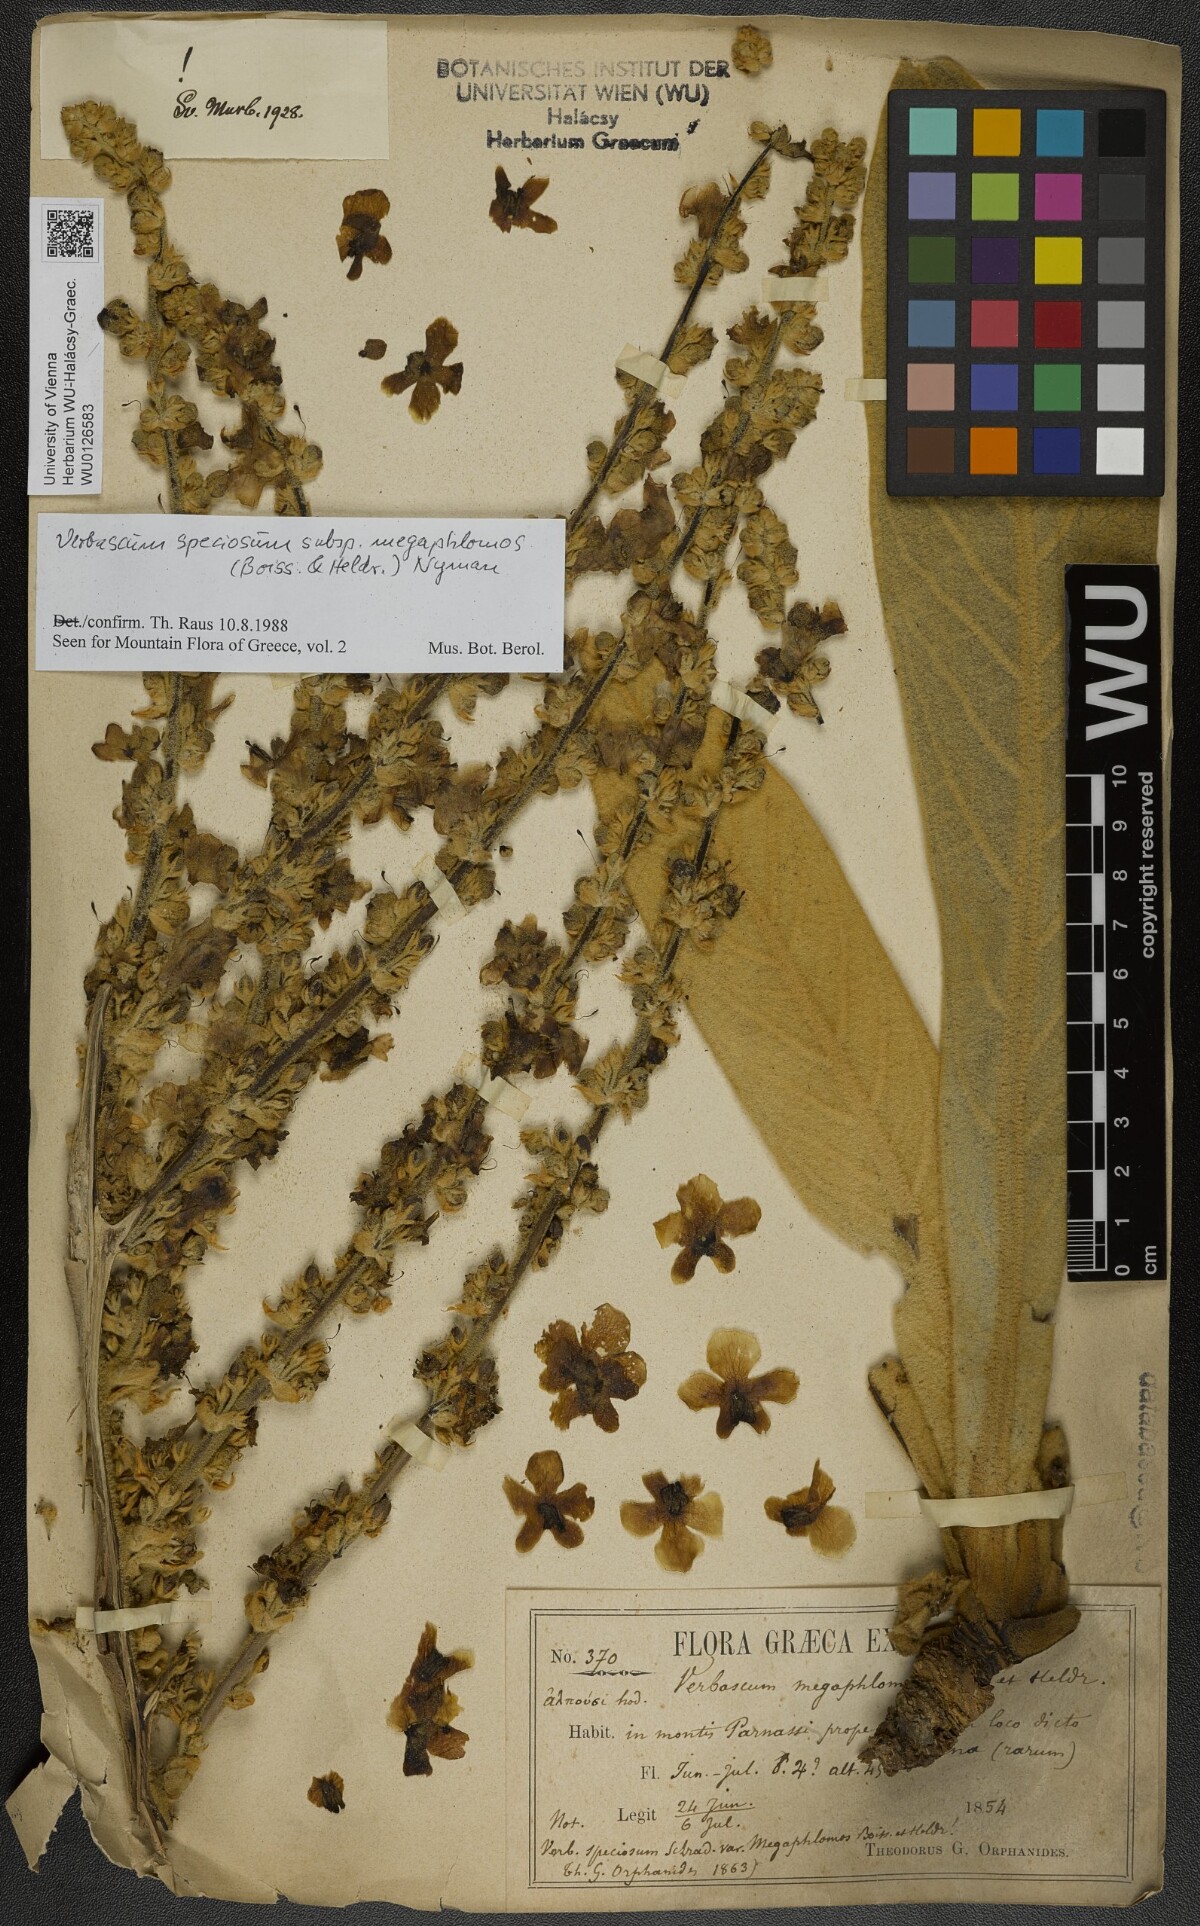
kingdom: Plantae
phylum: Tracheophyta
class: Magnoliopsida
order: Lamiales
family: Scrophulariaceae
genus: Verbascum
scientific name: Verbascum speciosum
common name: Hungarian mullein
